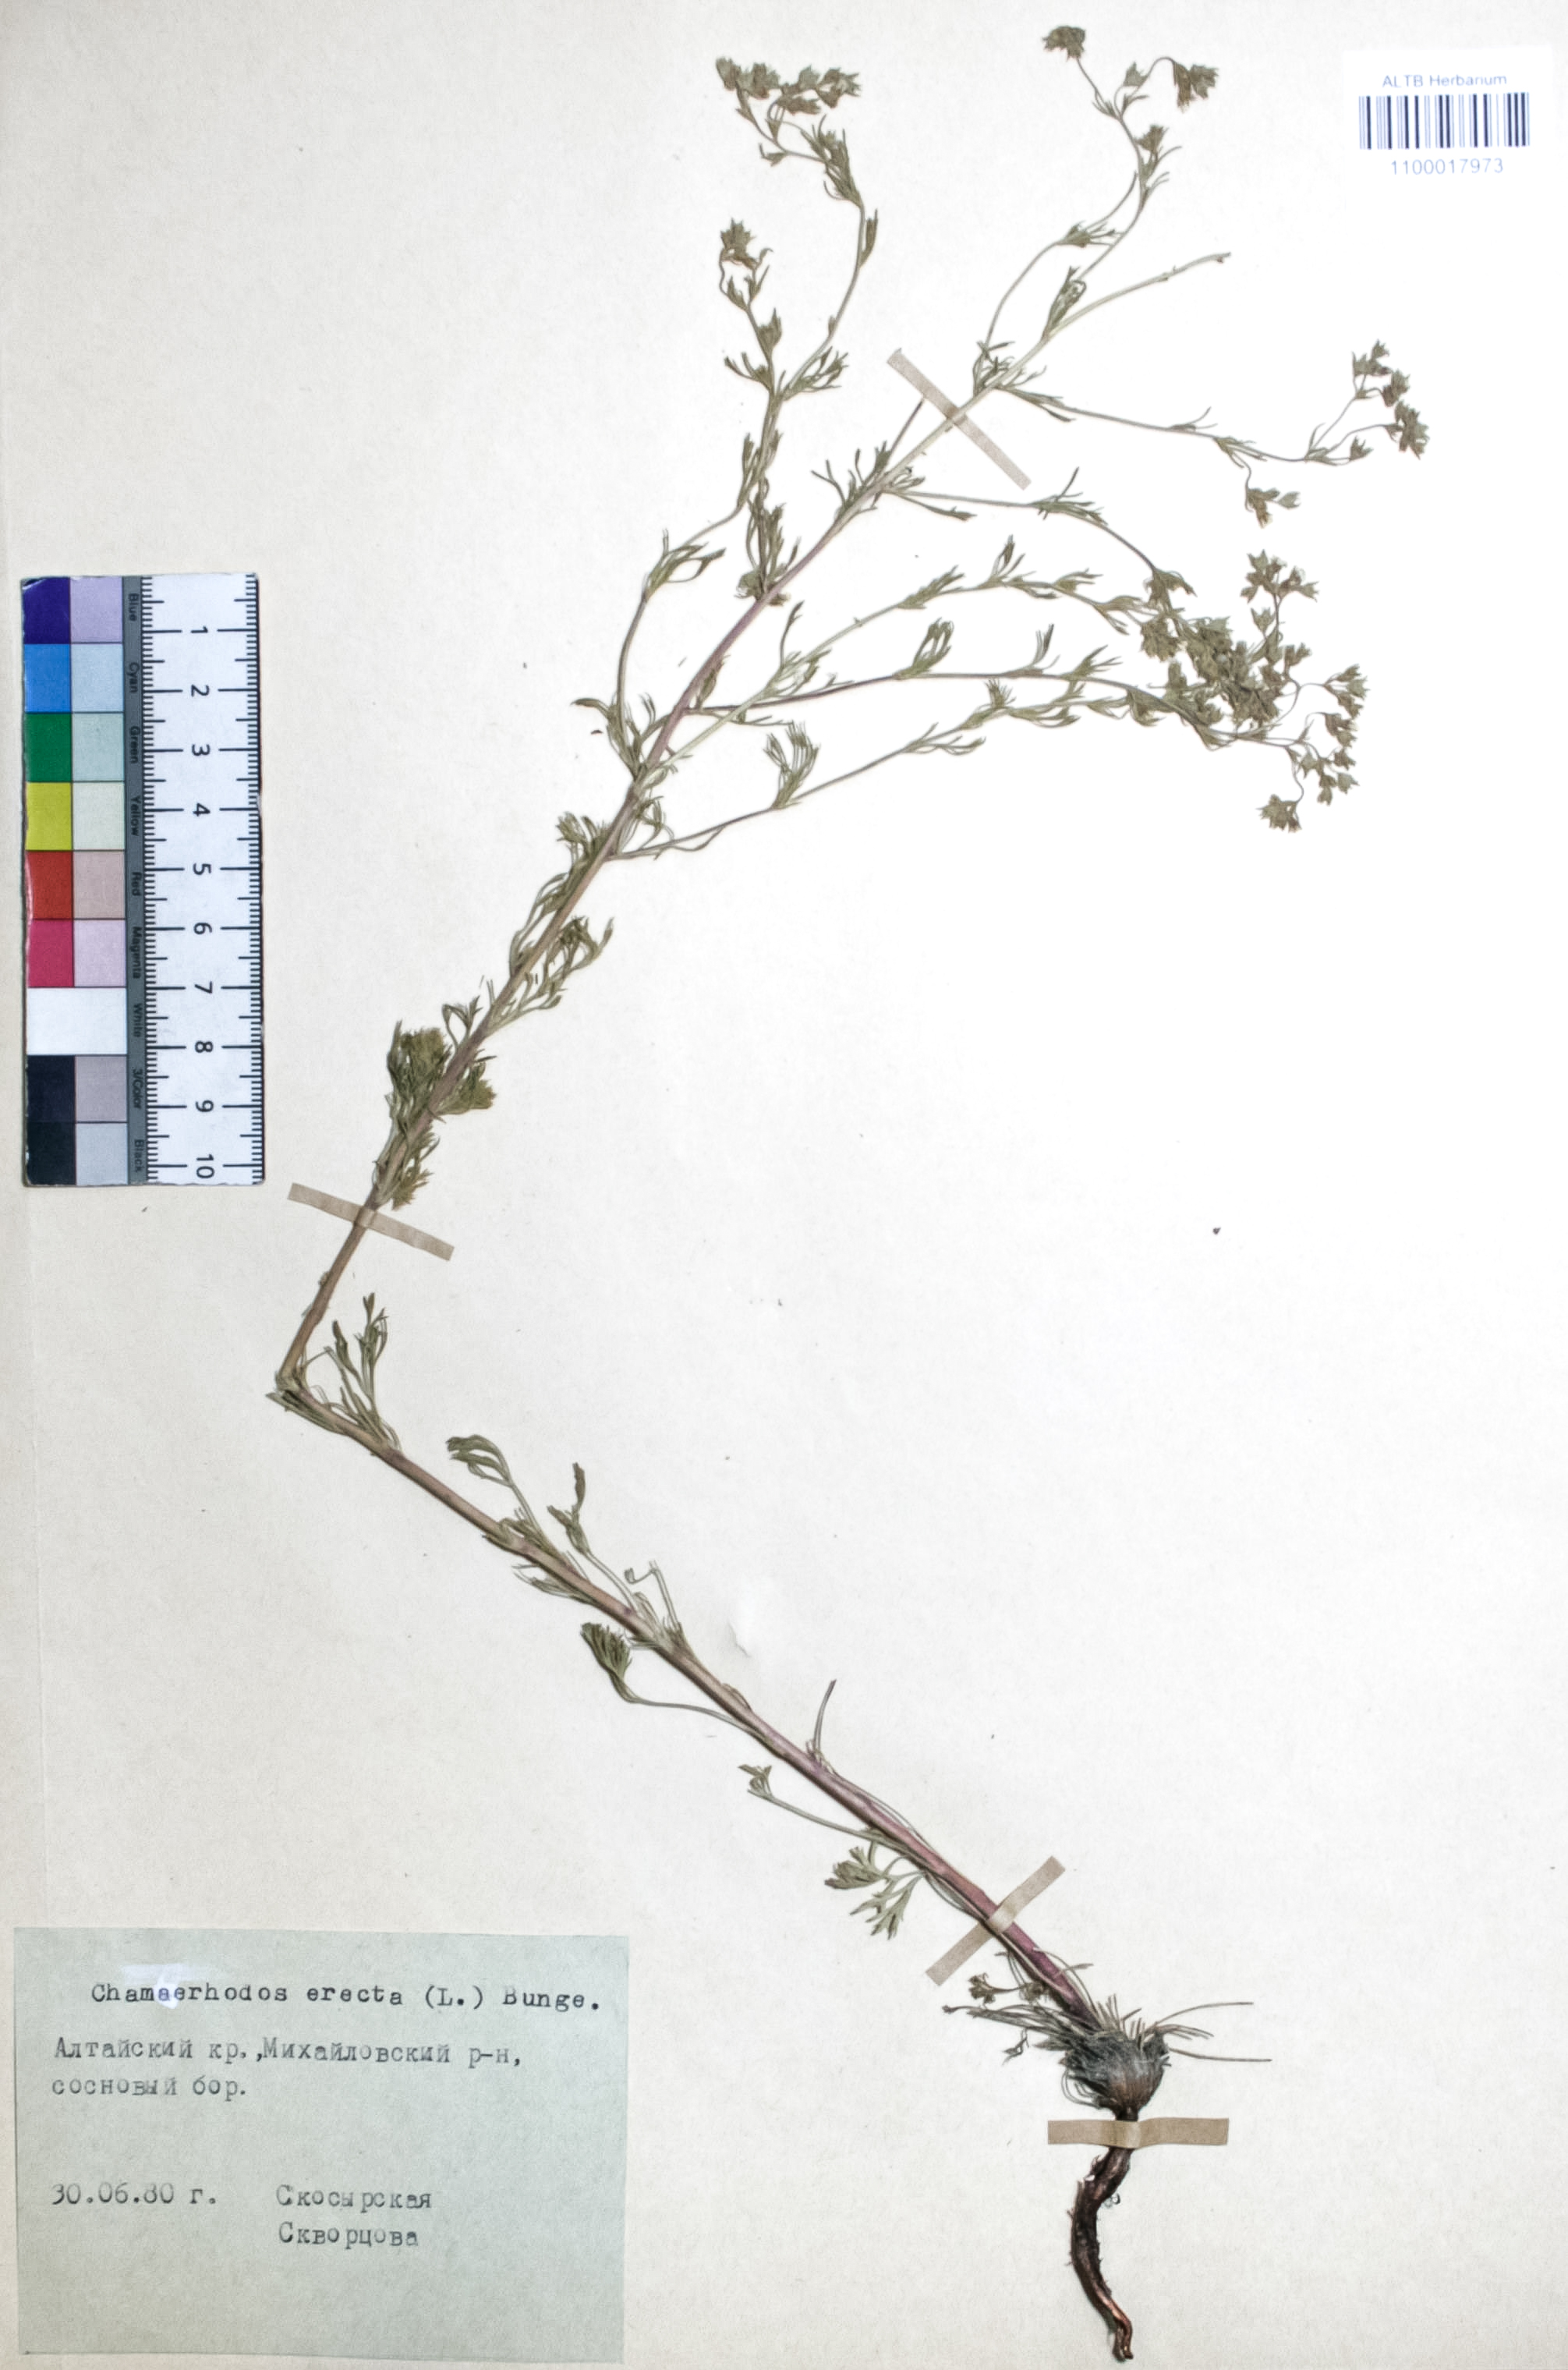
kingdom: Plantae
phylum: Tracheophyta
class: Magnoliopsida
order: Rosales
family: Rosaceae
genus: Chamaerhodos
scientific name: Chamaerhodos erecta
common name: American chamaerhodos
